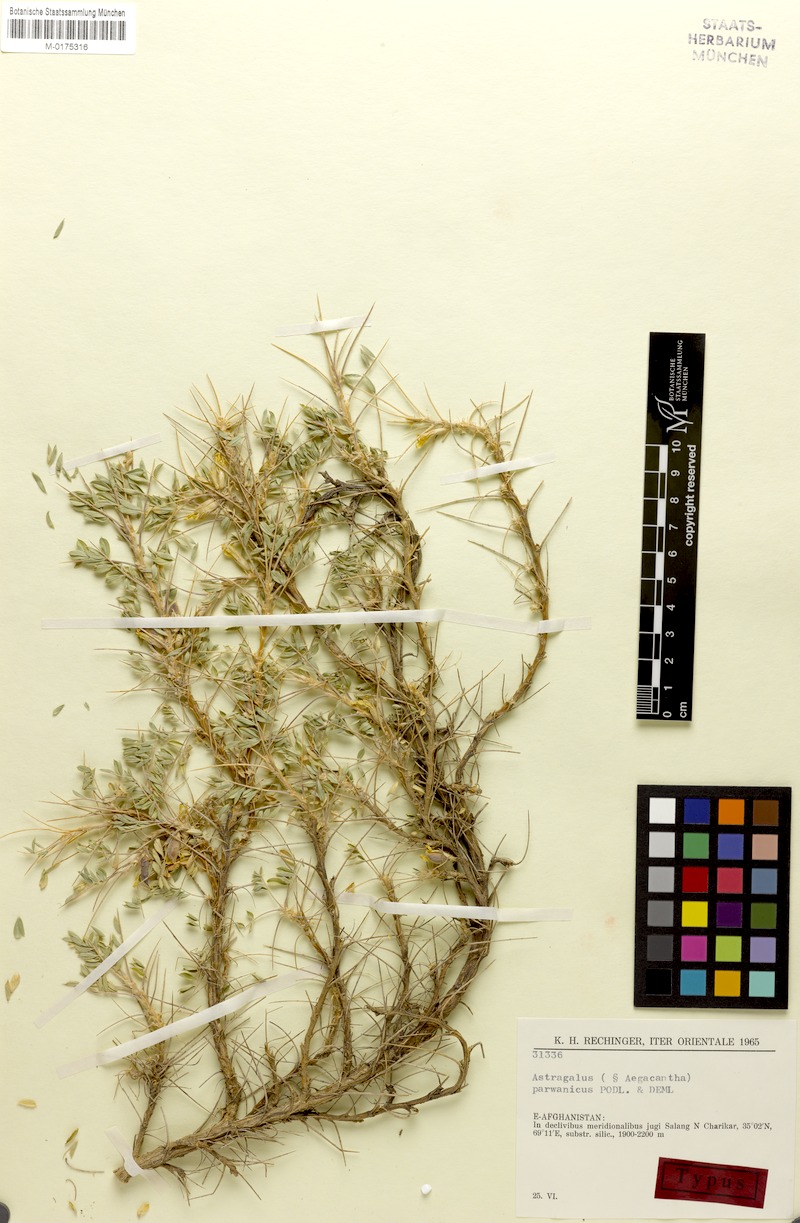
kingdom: Plantae
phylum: Tracheophyta
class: Magnoliopsida
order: Fabales
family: Fabaceae
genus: Astragalus
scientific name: Astragalus parwanicus
